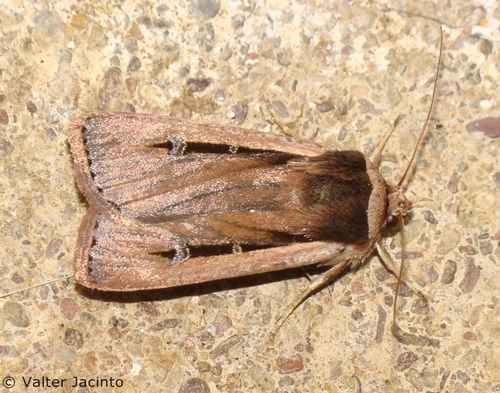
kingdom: Animalia
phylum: Arthropoda
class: Insecta
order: Lepidoptera
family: Noctuidae
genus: Ochropleura
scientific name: Ochropleura leucogaster
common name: Radford's flame shoulder
